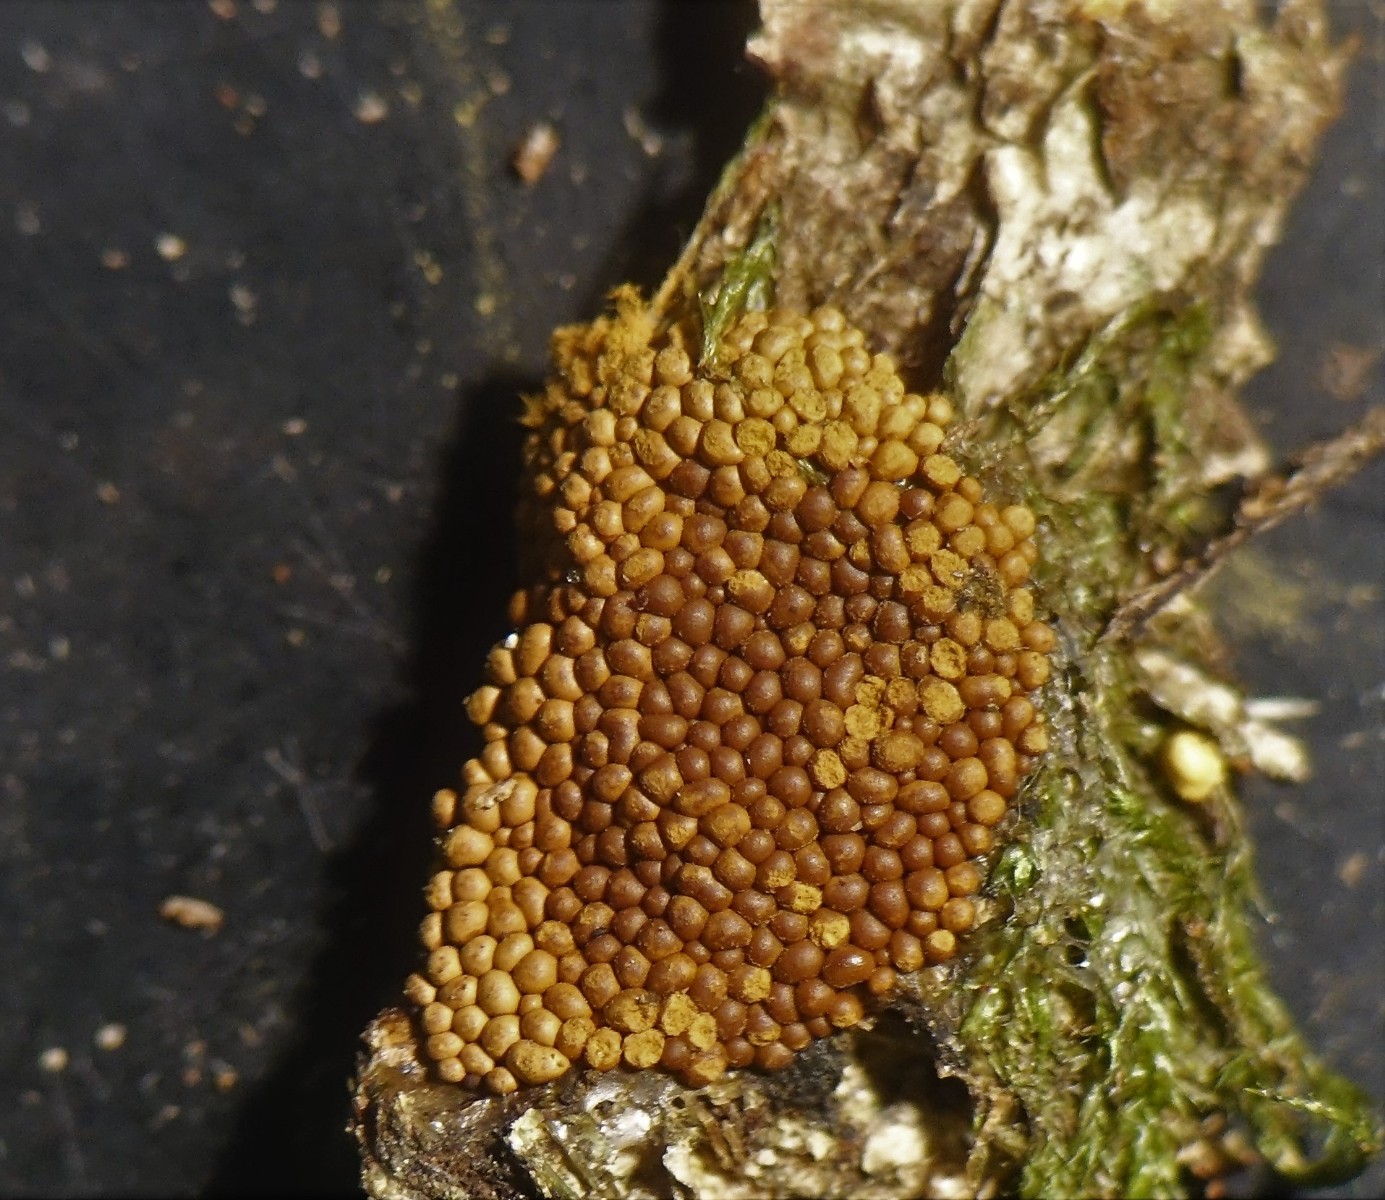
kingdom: Protozoa
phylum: Mycetozoa
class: Myxomycetes
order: Trichiales
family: Trichiaceae
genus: Oligonema
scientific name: Oligonema persimile
